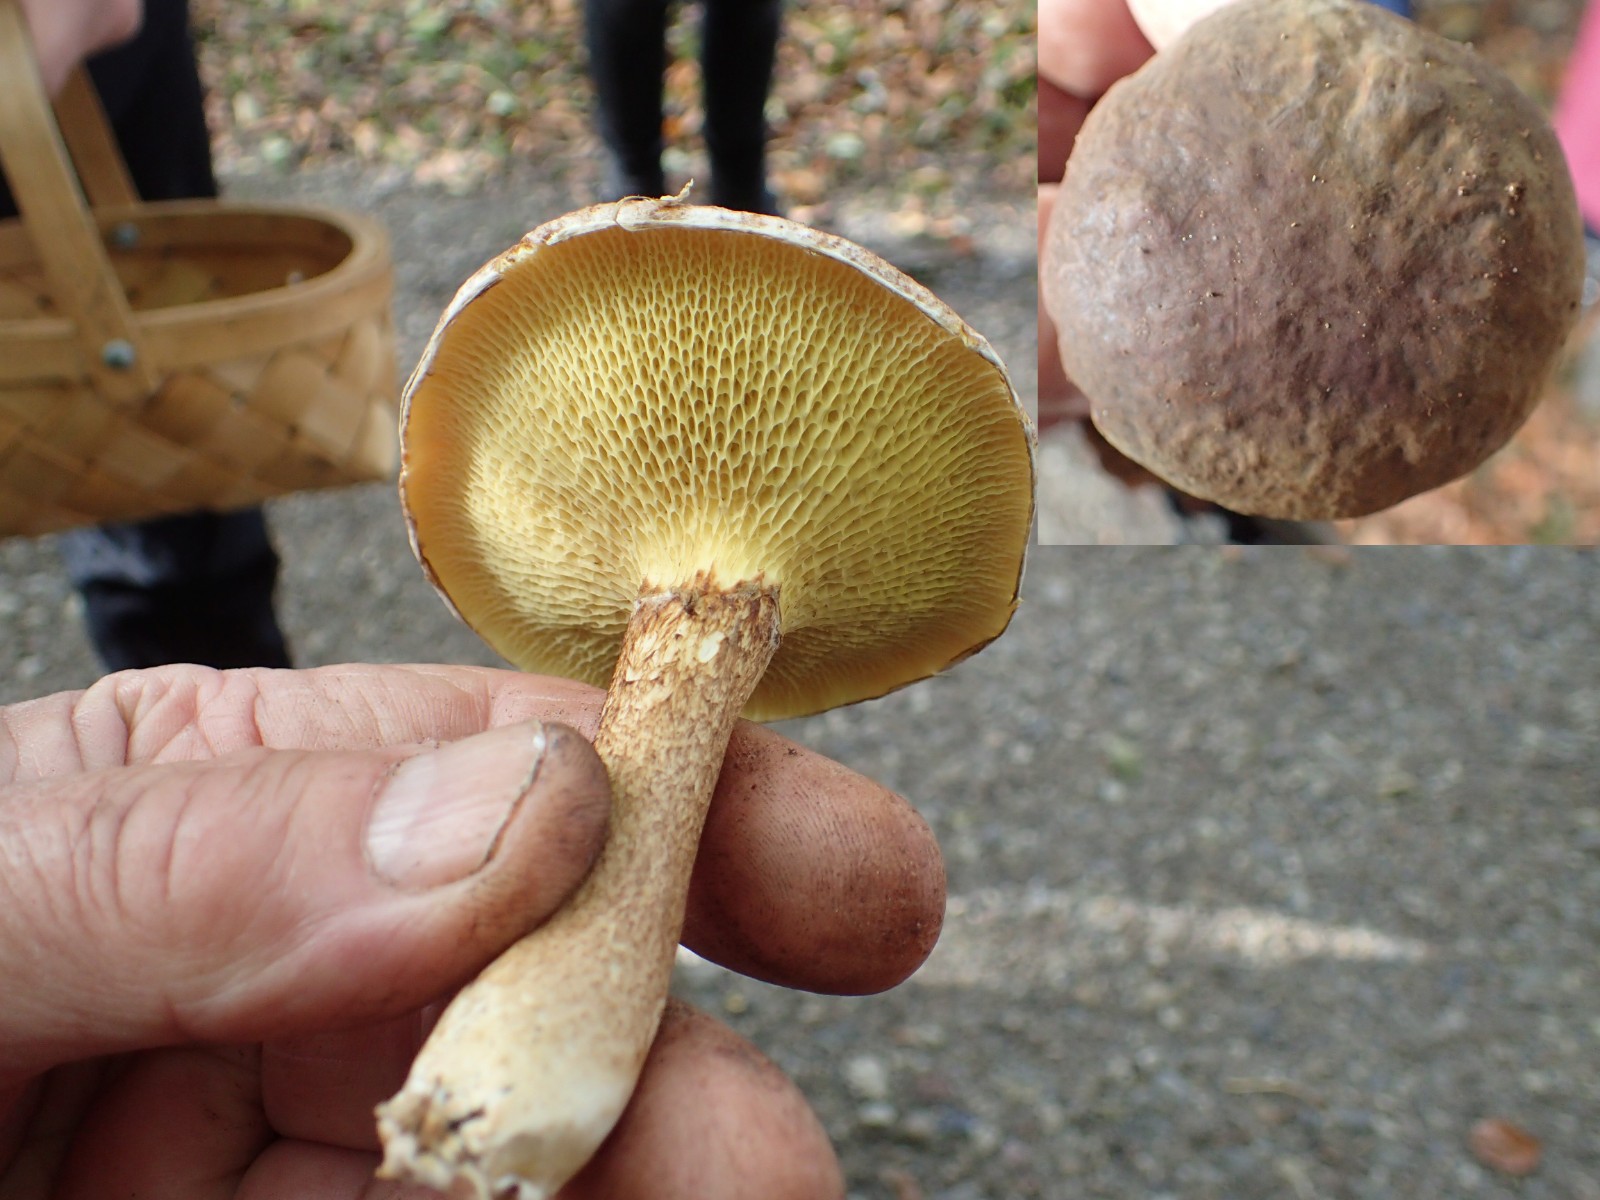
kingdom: Fungi
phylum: Basidiomycota
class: Agaricomycetes
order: Boletales
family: Suillaceae
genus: Suillus
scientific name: Suillus cavipes
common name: hulstokket slimrørhat
